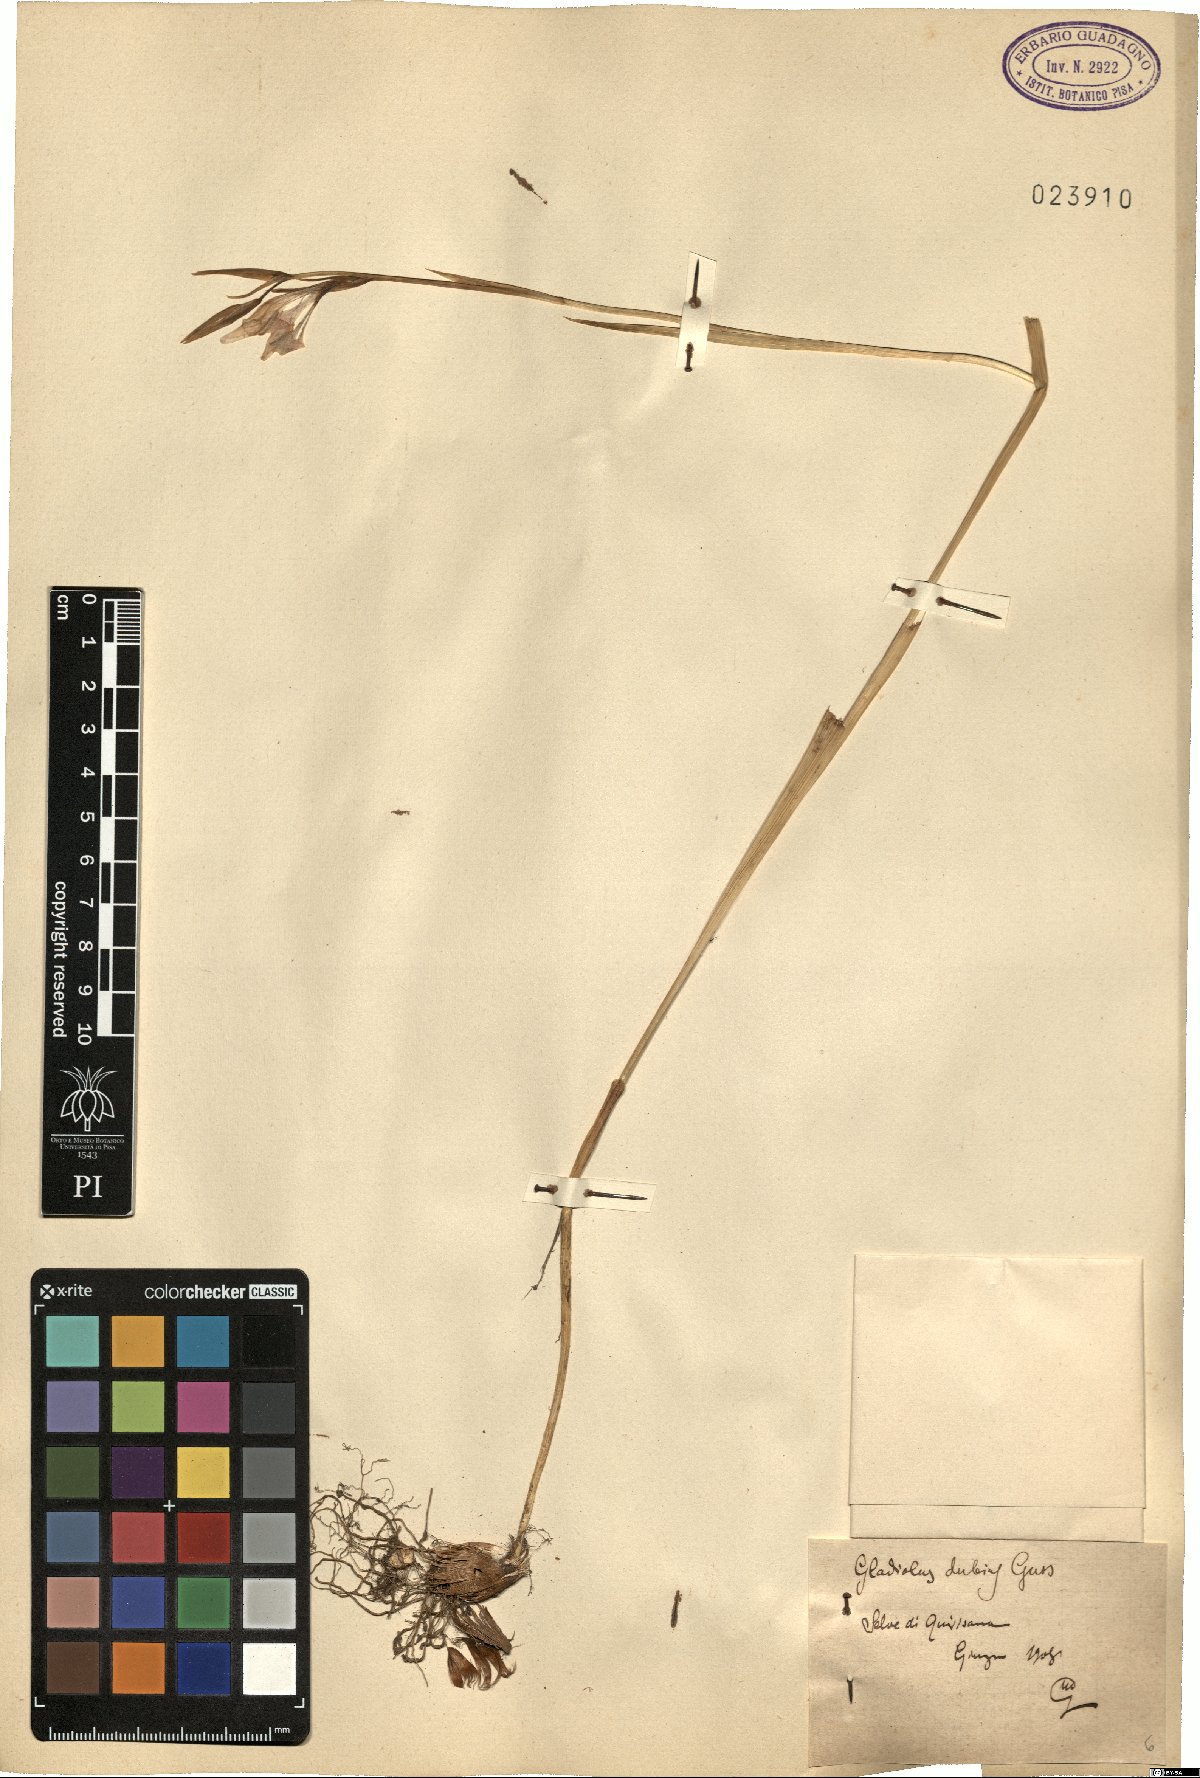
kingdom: Plantae
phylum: Tracheophyta
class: Liliopsida
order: Asparagales
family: Iridaceae
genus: Gladiolus
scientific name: Gladiolus dubius
